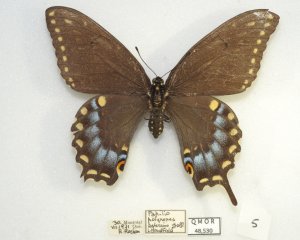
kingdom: Animalia
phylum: Arthropoda
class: Insecta
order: Lepidoptera
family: Papilionidae
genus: Papilio
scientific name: Papilio polyxenes
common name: Black Swallowtail
